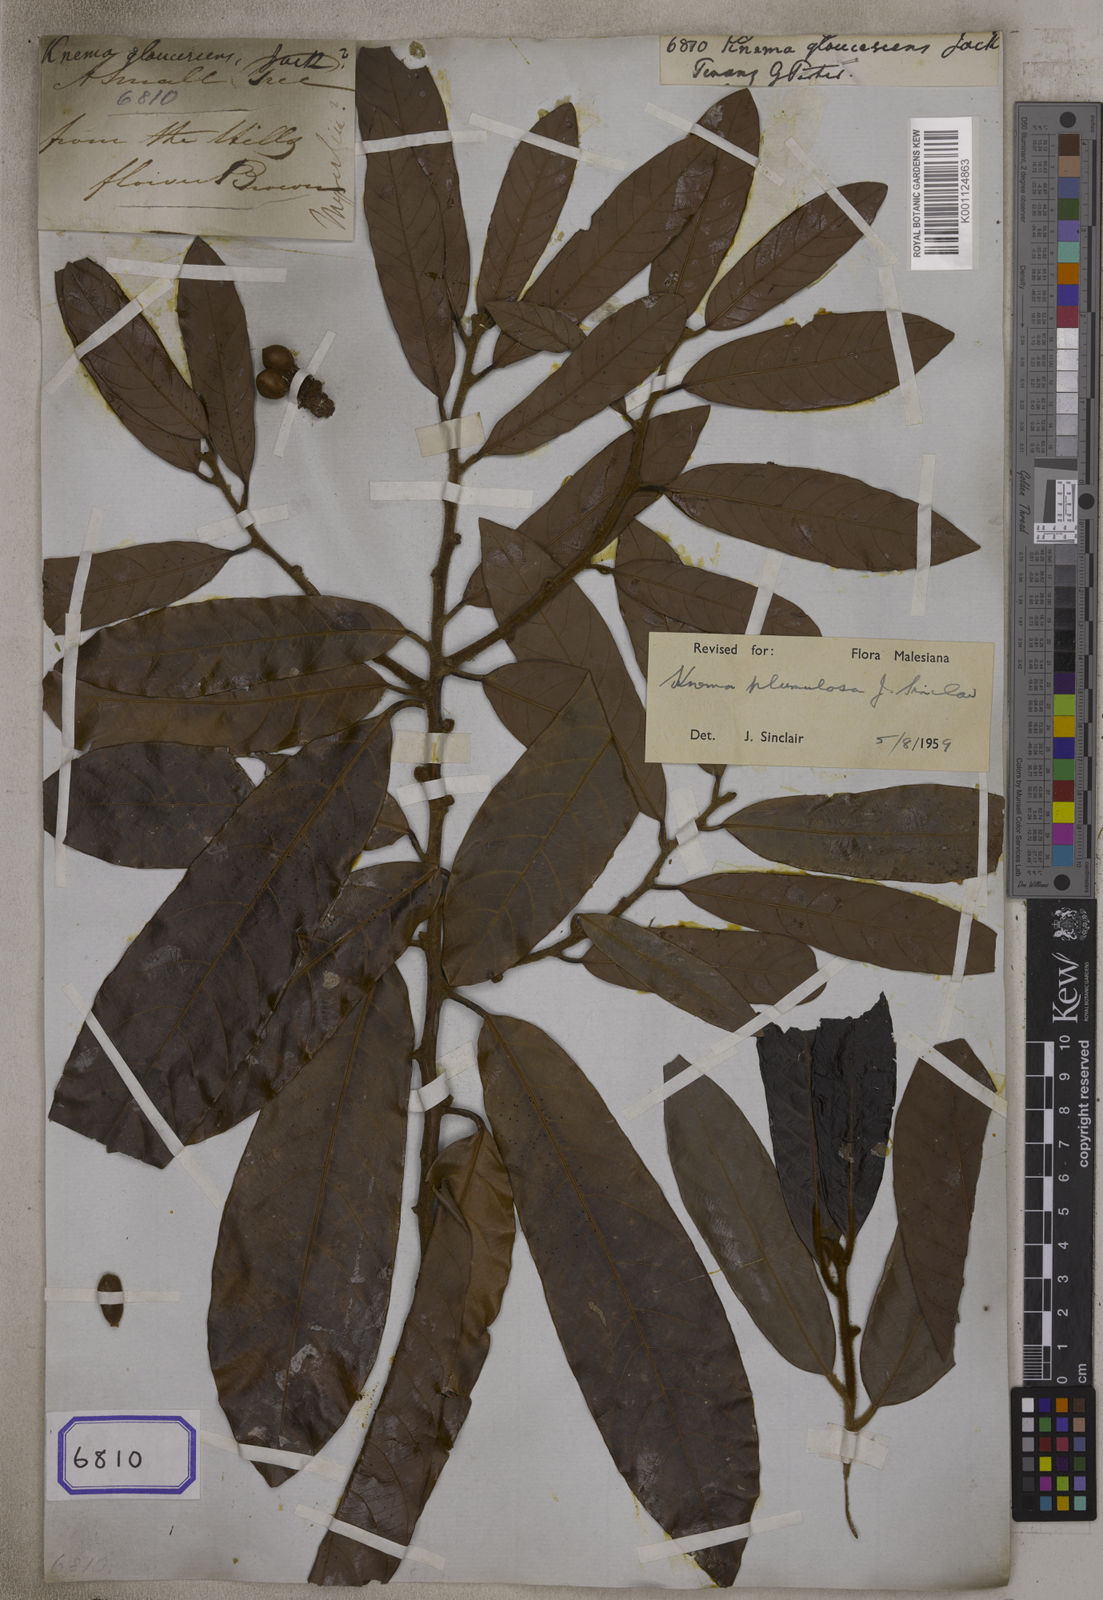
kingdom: Plantae
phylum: Tracheophyta
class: Magnoliopsida
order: Magnoliales
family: Myristicaceae
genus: Knema
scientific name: Knema furfuracea
